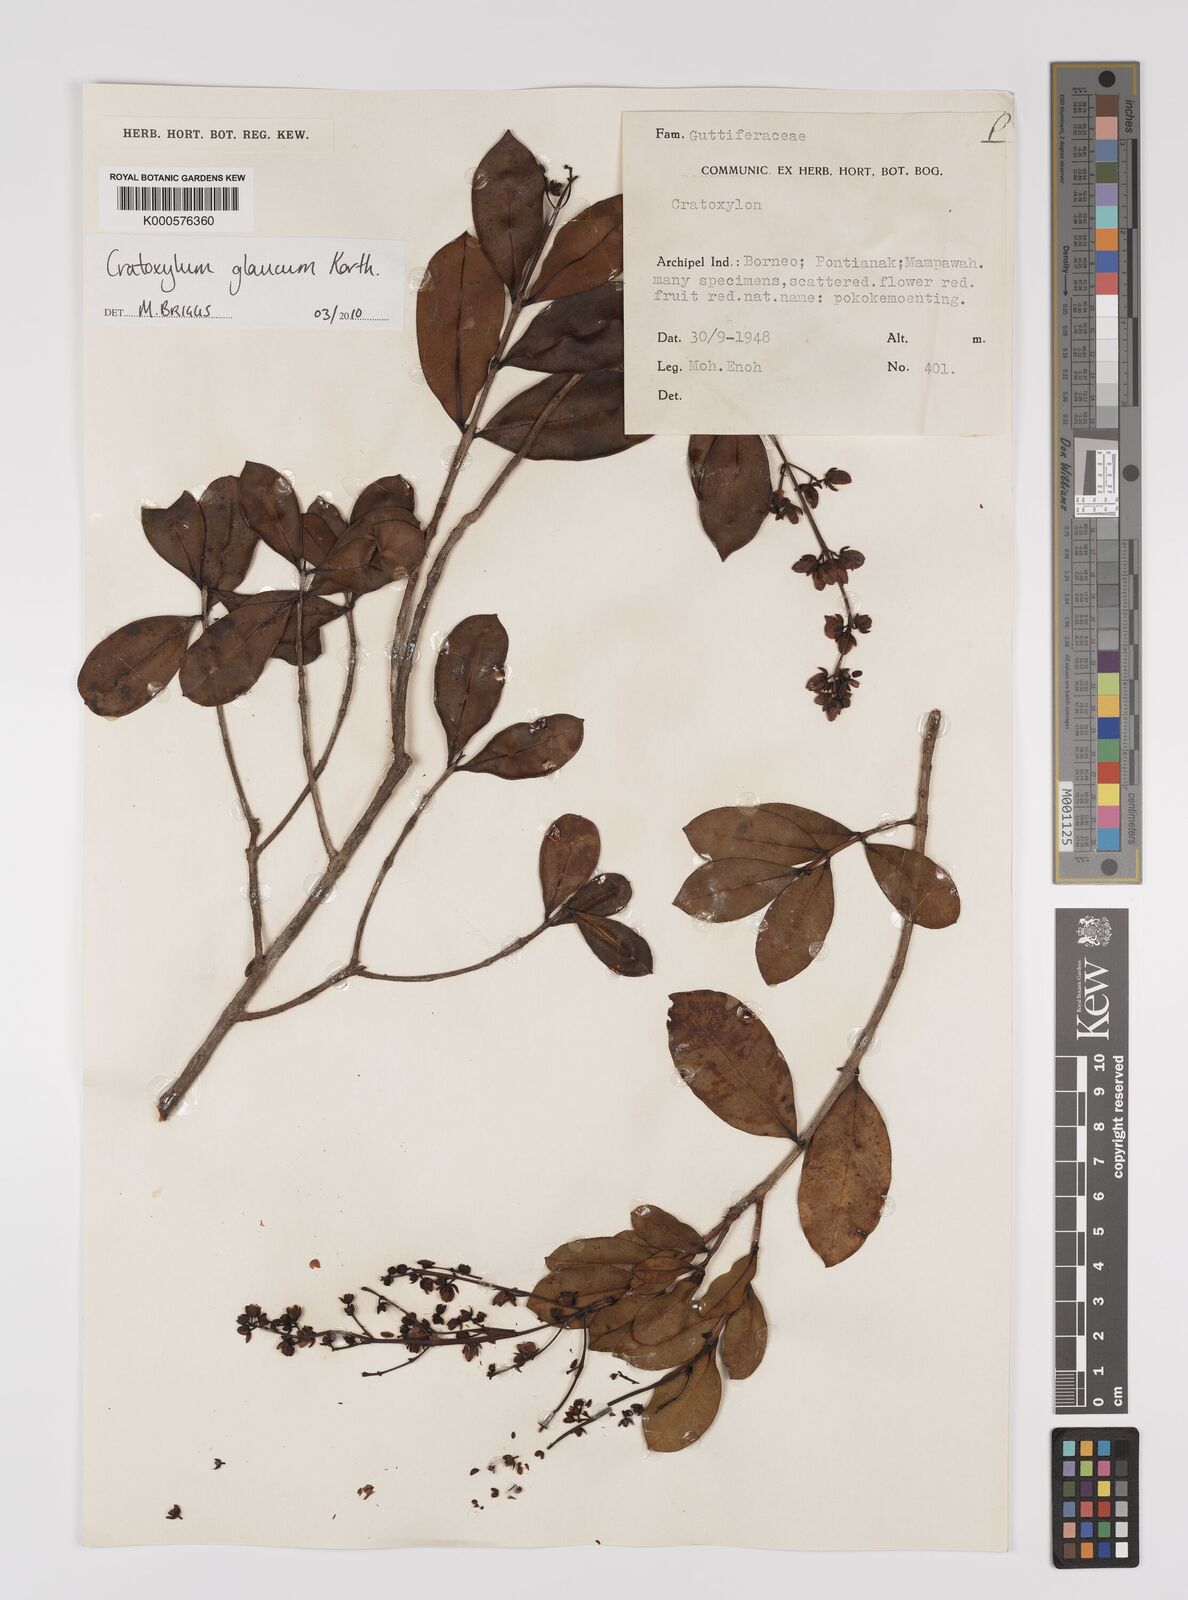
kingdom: Plantae
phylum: Tracheophyta
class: Magnoliopsida
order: Malpighiales
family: Hypericaceae
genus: Cratoxylum
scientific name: Cratoxylum glaucum
